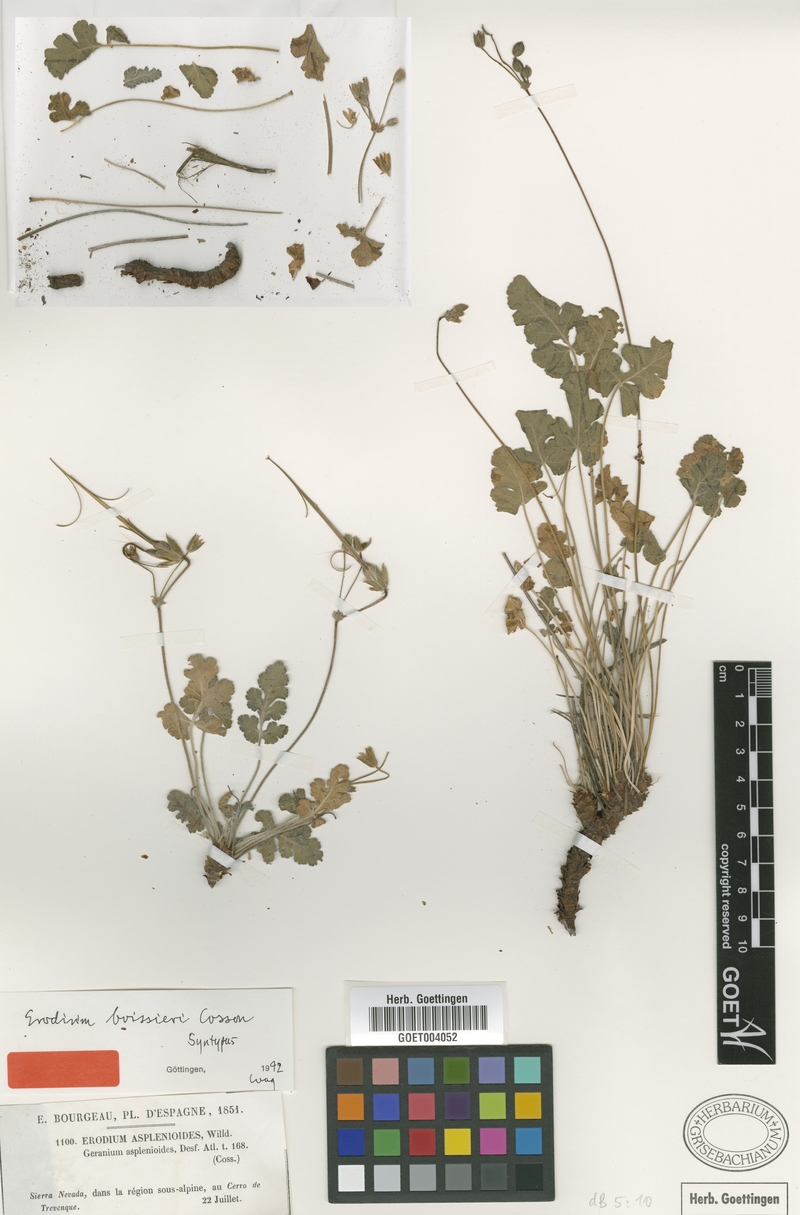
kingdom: Plantae
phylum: Tracheophyta
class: Magnoliopsida
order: Geraniales
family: Geraniaceae
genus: Erodium
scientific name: Erodium boissieri
